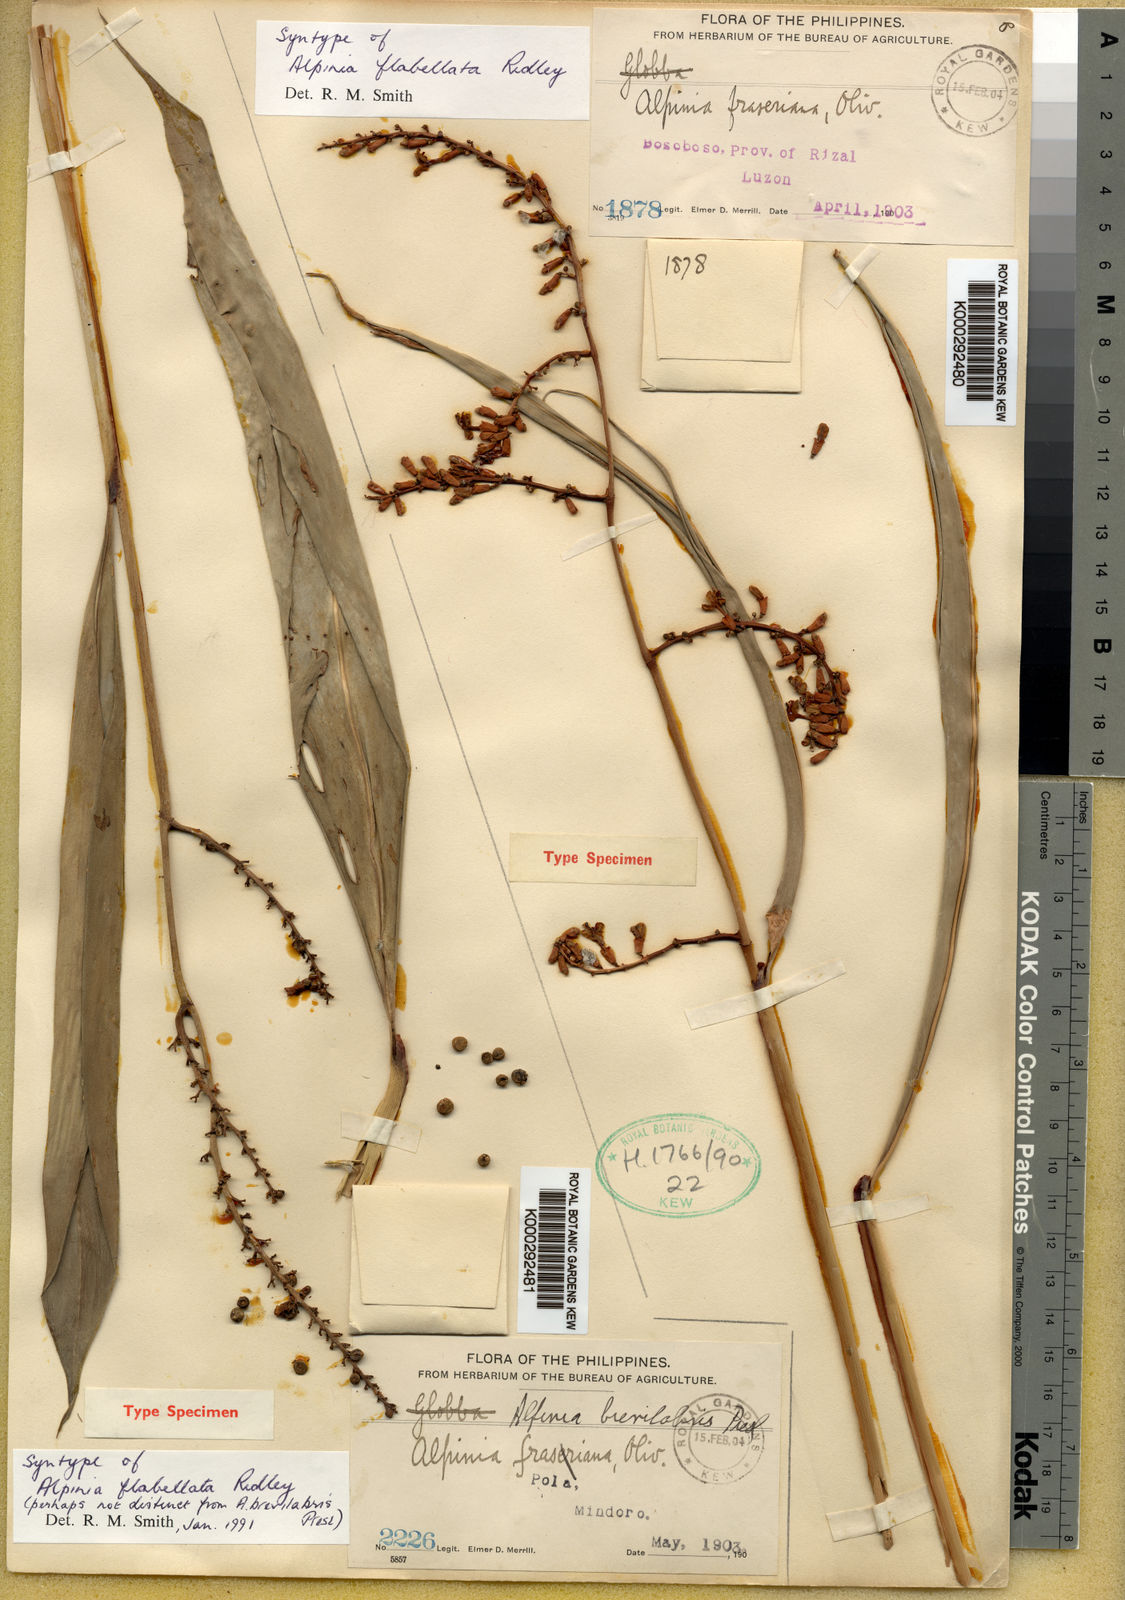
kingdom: Plantae
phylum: Tracheophyta
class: Liliopsida
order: Zingiberales
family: Zingiberaceae
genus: Alpinia
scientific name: Alpinia flabellata
